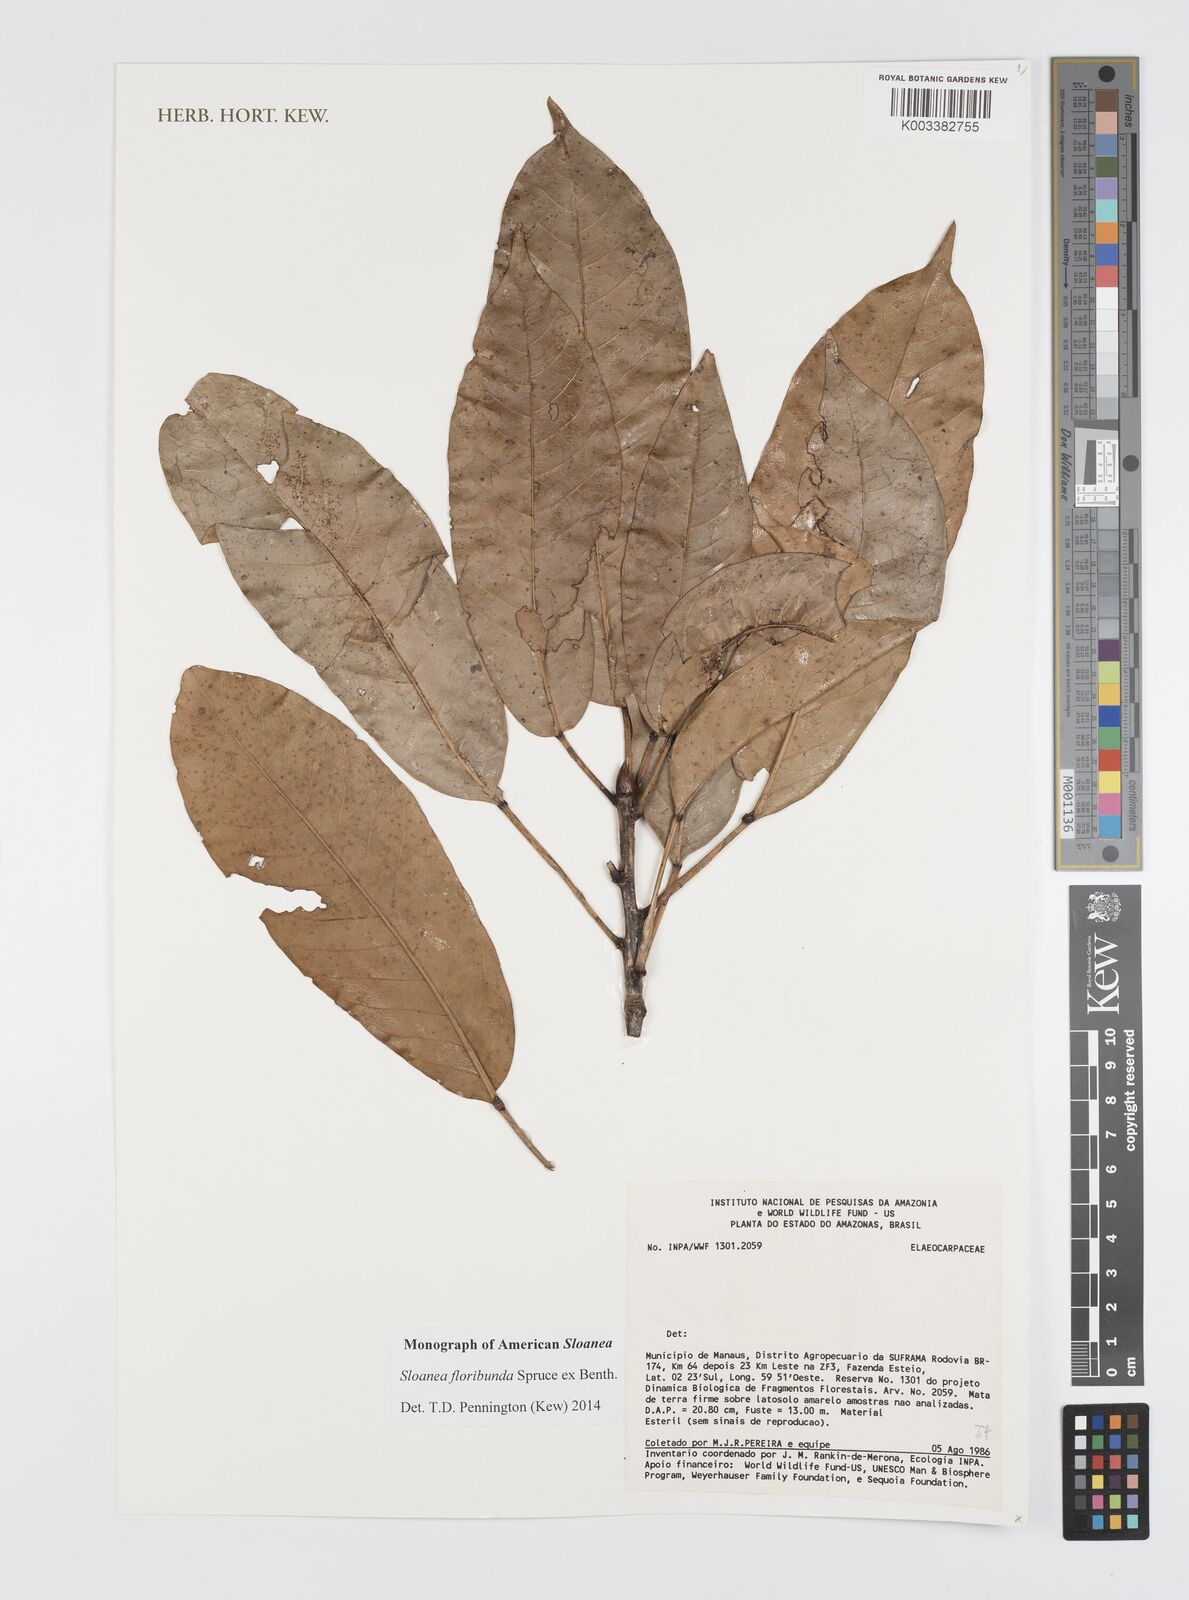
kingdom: Plantae
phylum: Tracheophyta
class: Magnoliopsida
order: Oxalidales
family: Elaeocarpaceae
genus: Sloanea
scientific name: Sloanea floribunda
